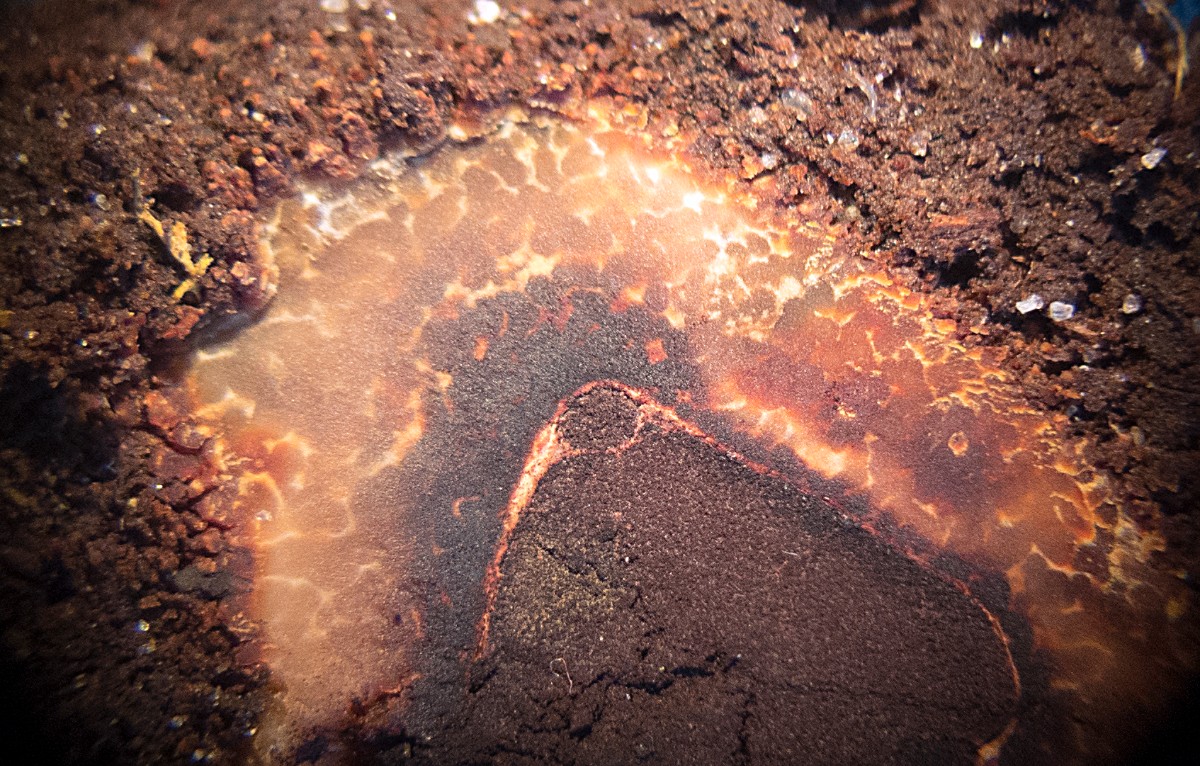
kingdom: Fungi
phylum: Ascomycota
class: Eurotiomycetes
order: Eurotiales
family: Elaphomycetaceae
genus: Elaphomyces
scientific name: Elaphomyces muricatus
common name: vortet hjortetrøffel
